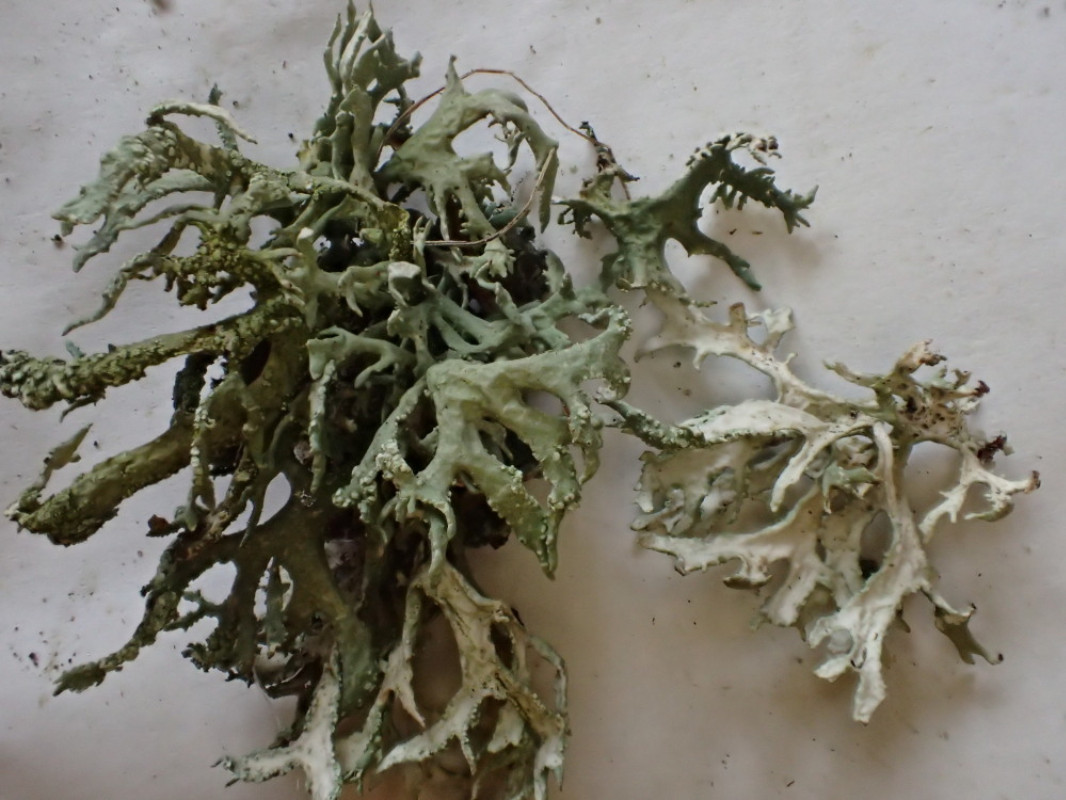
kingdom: Fungi
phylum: Ascomycota
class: Lecanoromycetes
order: Lecanorales
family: Parmeliaceae
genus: Evernia
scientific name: Evernia prunastri
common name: almindelig slåenlav
